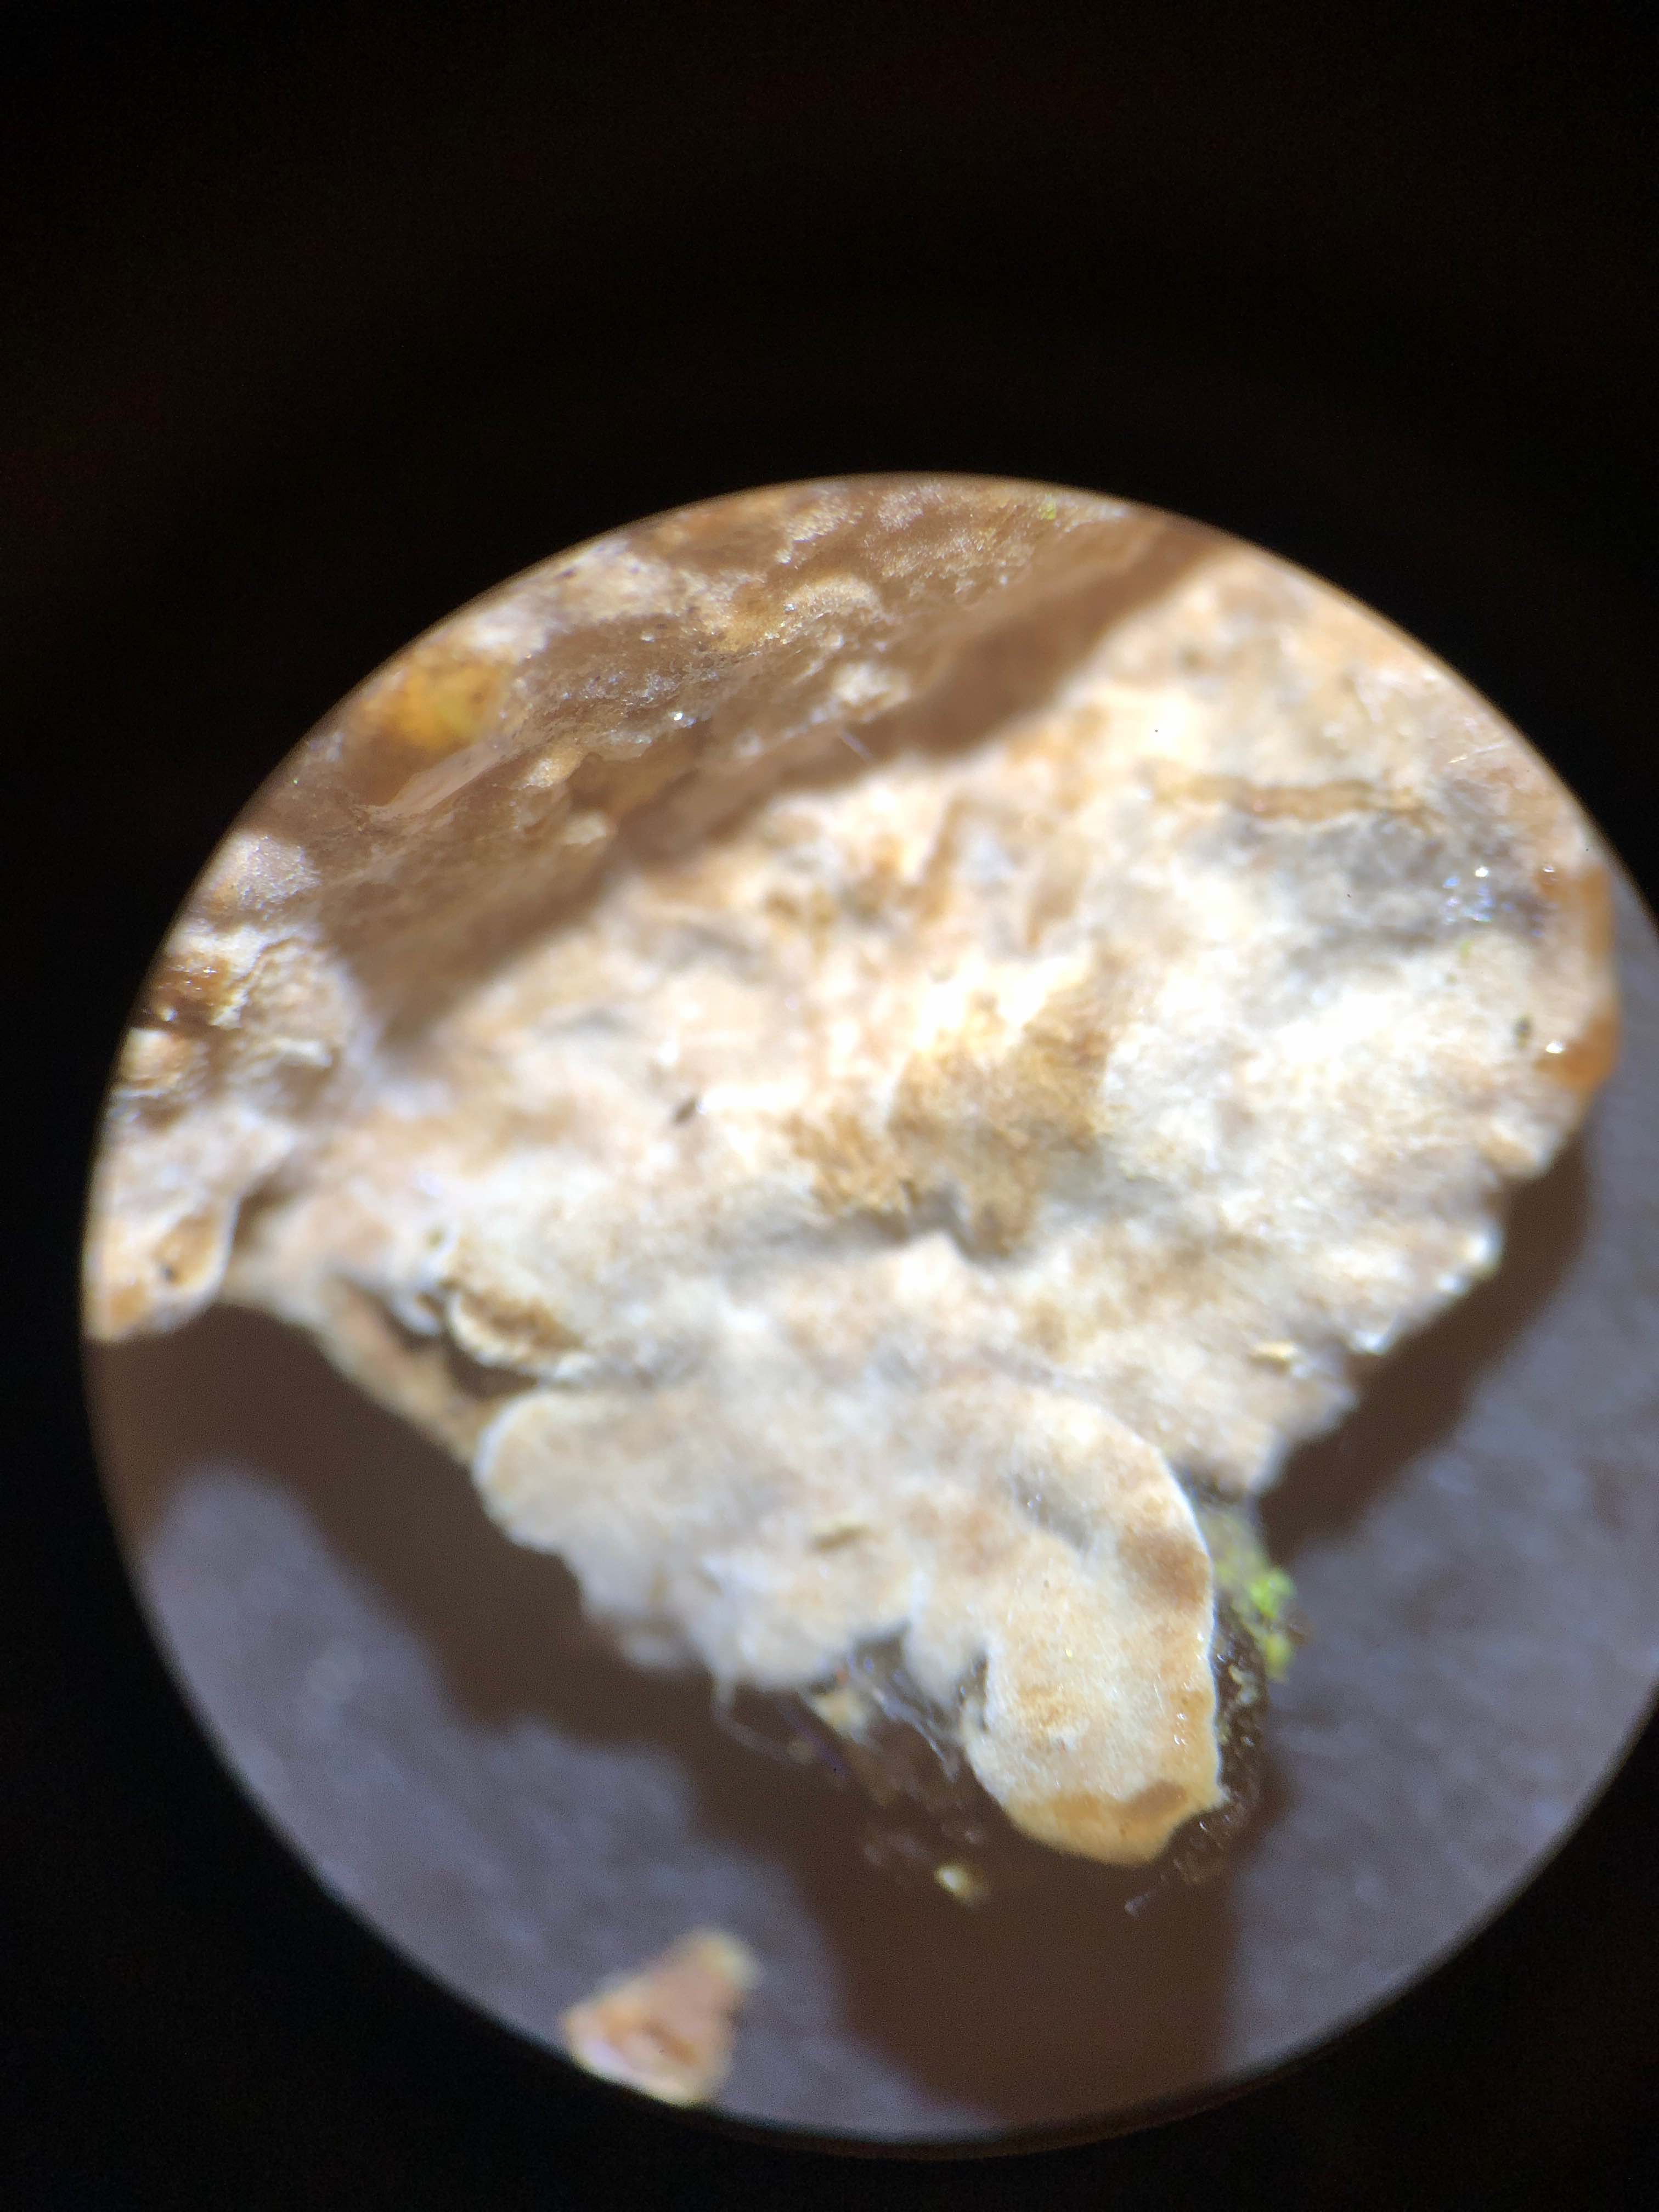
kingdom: Fungi
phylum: Basidiomycota
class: Agaricomycetes
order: Russulales
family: Echinodontiaceae
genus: Amylostereum
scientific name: Amylostereum chailletii
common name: gran-lædersvamp
